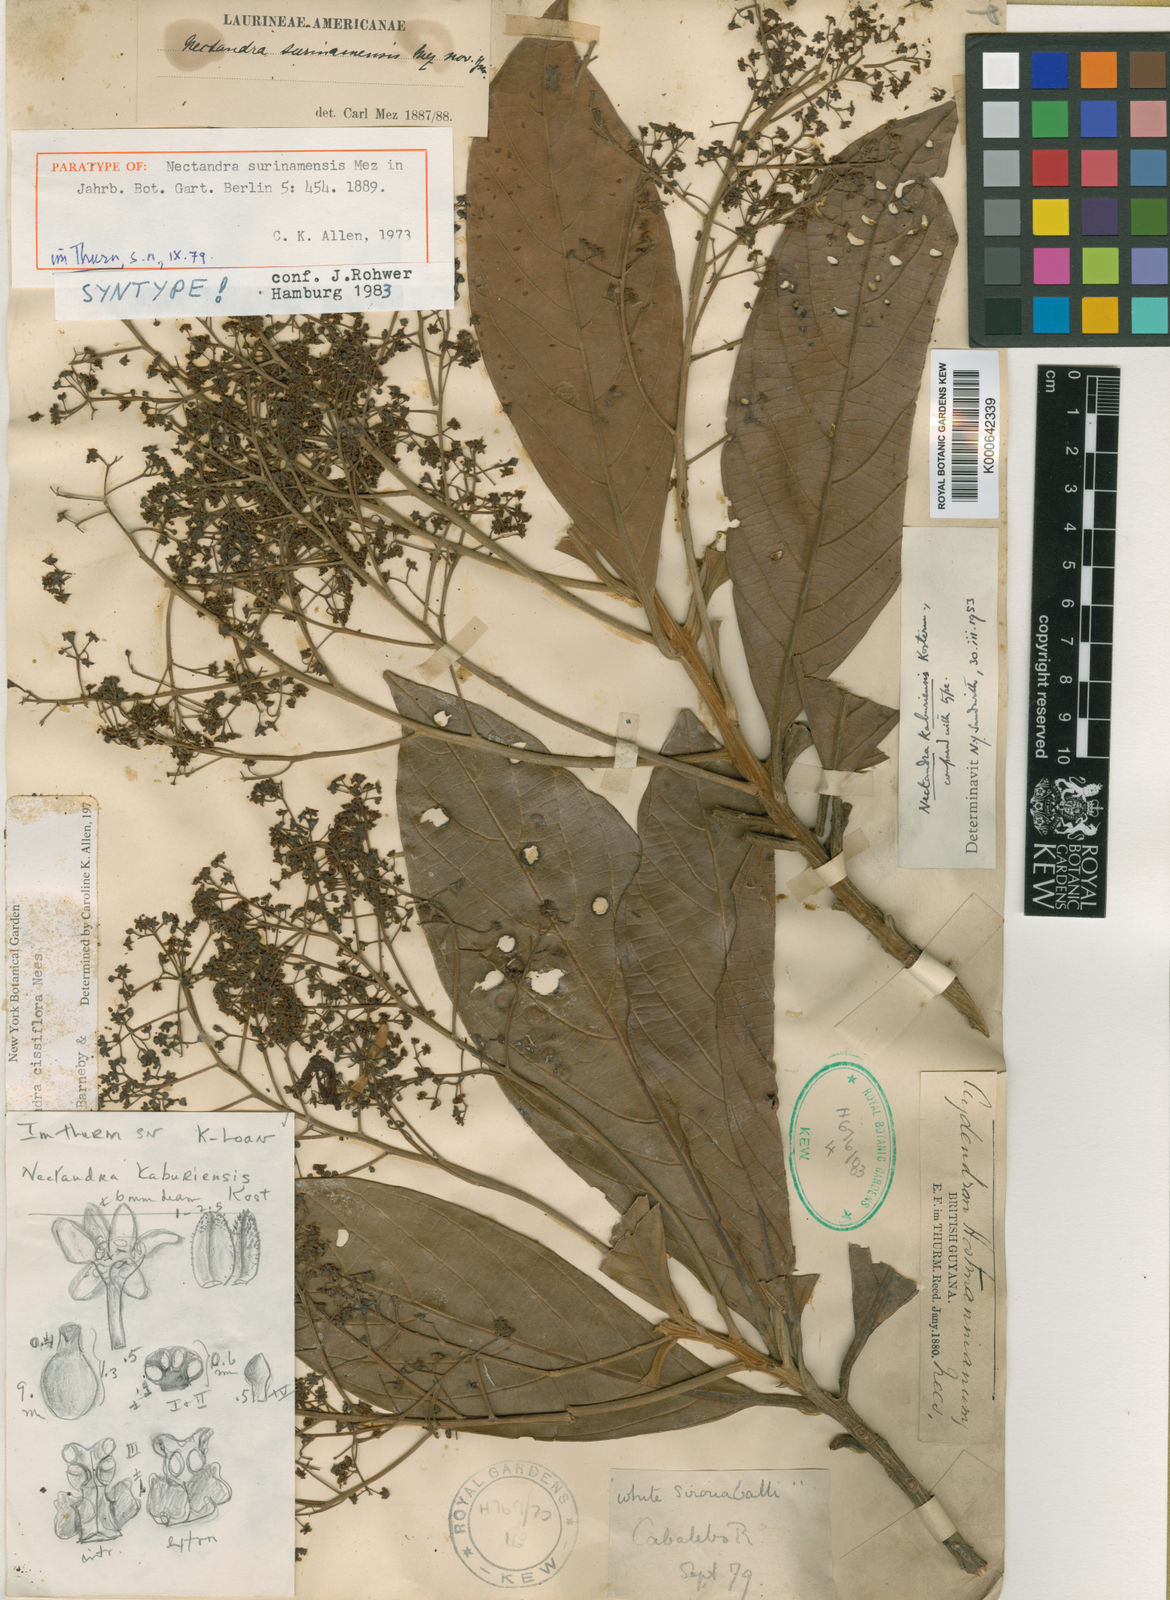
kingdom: Plantae
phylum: Tracheophyta
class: Magnoliopsida
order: Laurales
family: Lauraceae
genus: Nectandra
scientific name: Nectandra cissiflora
